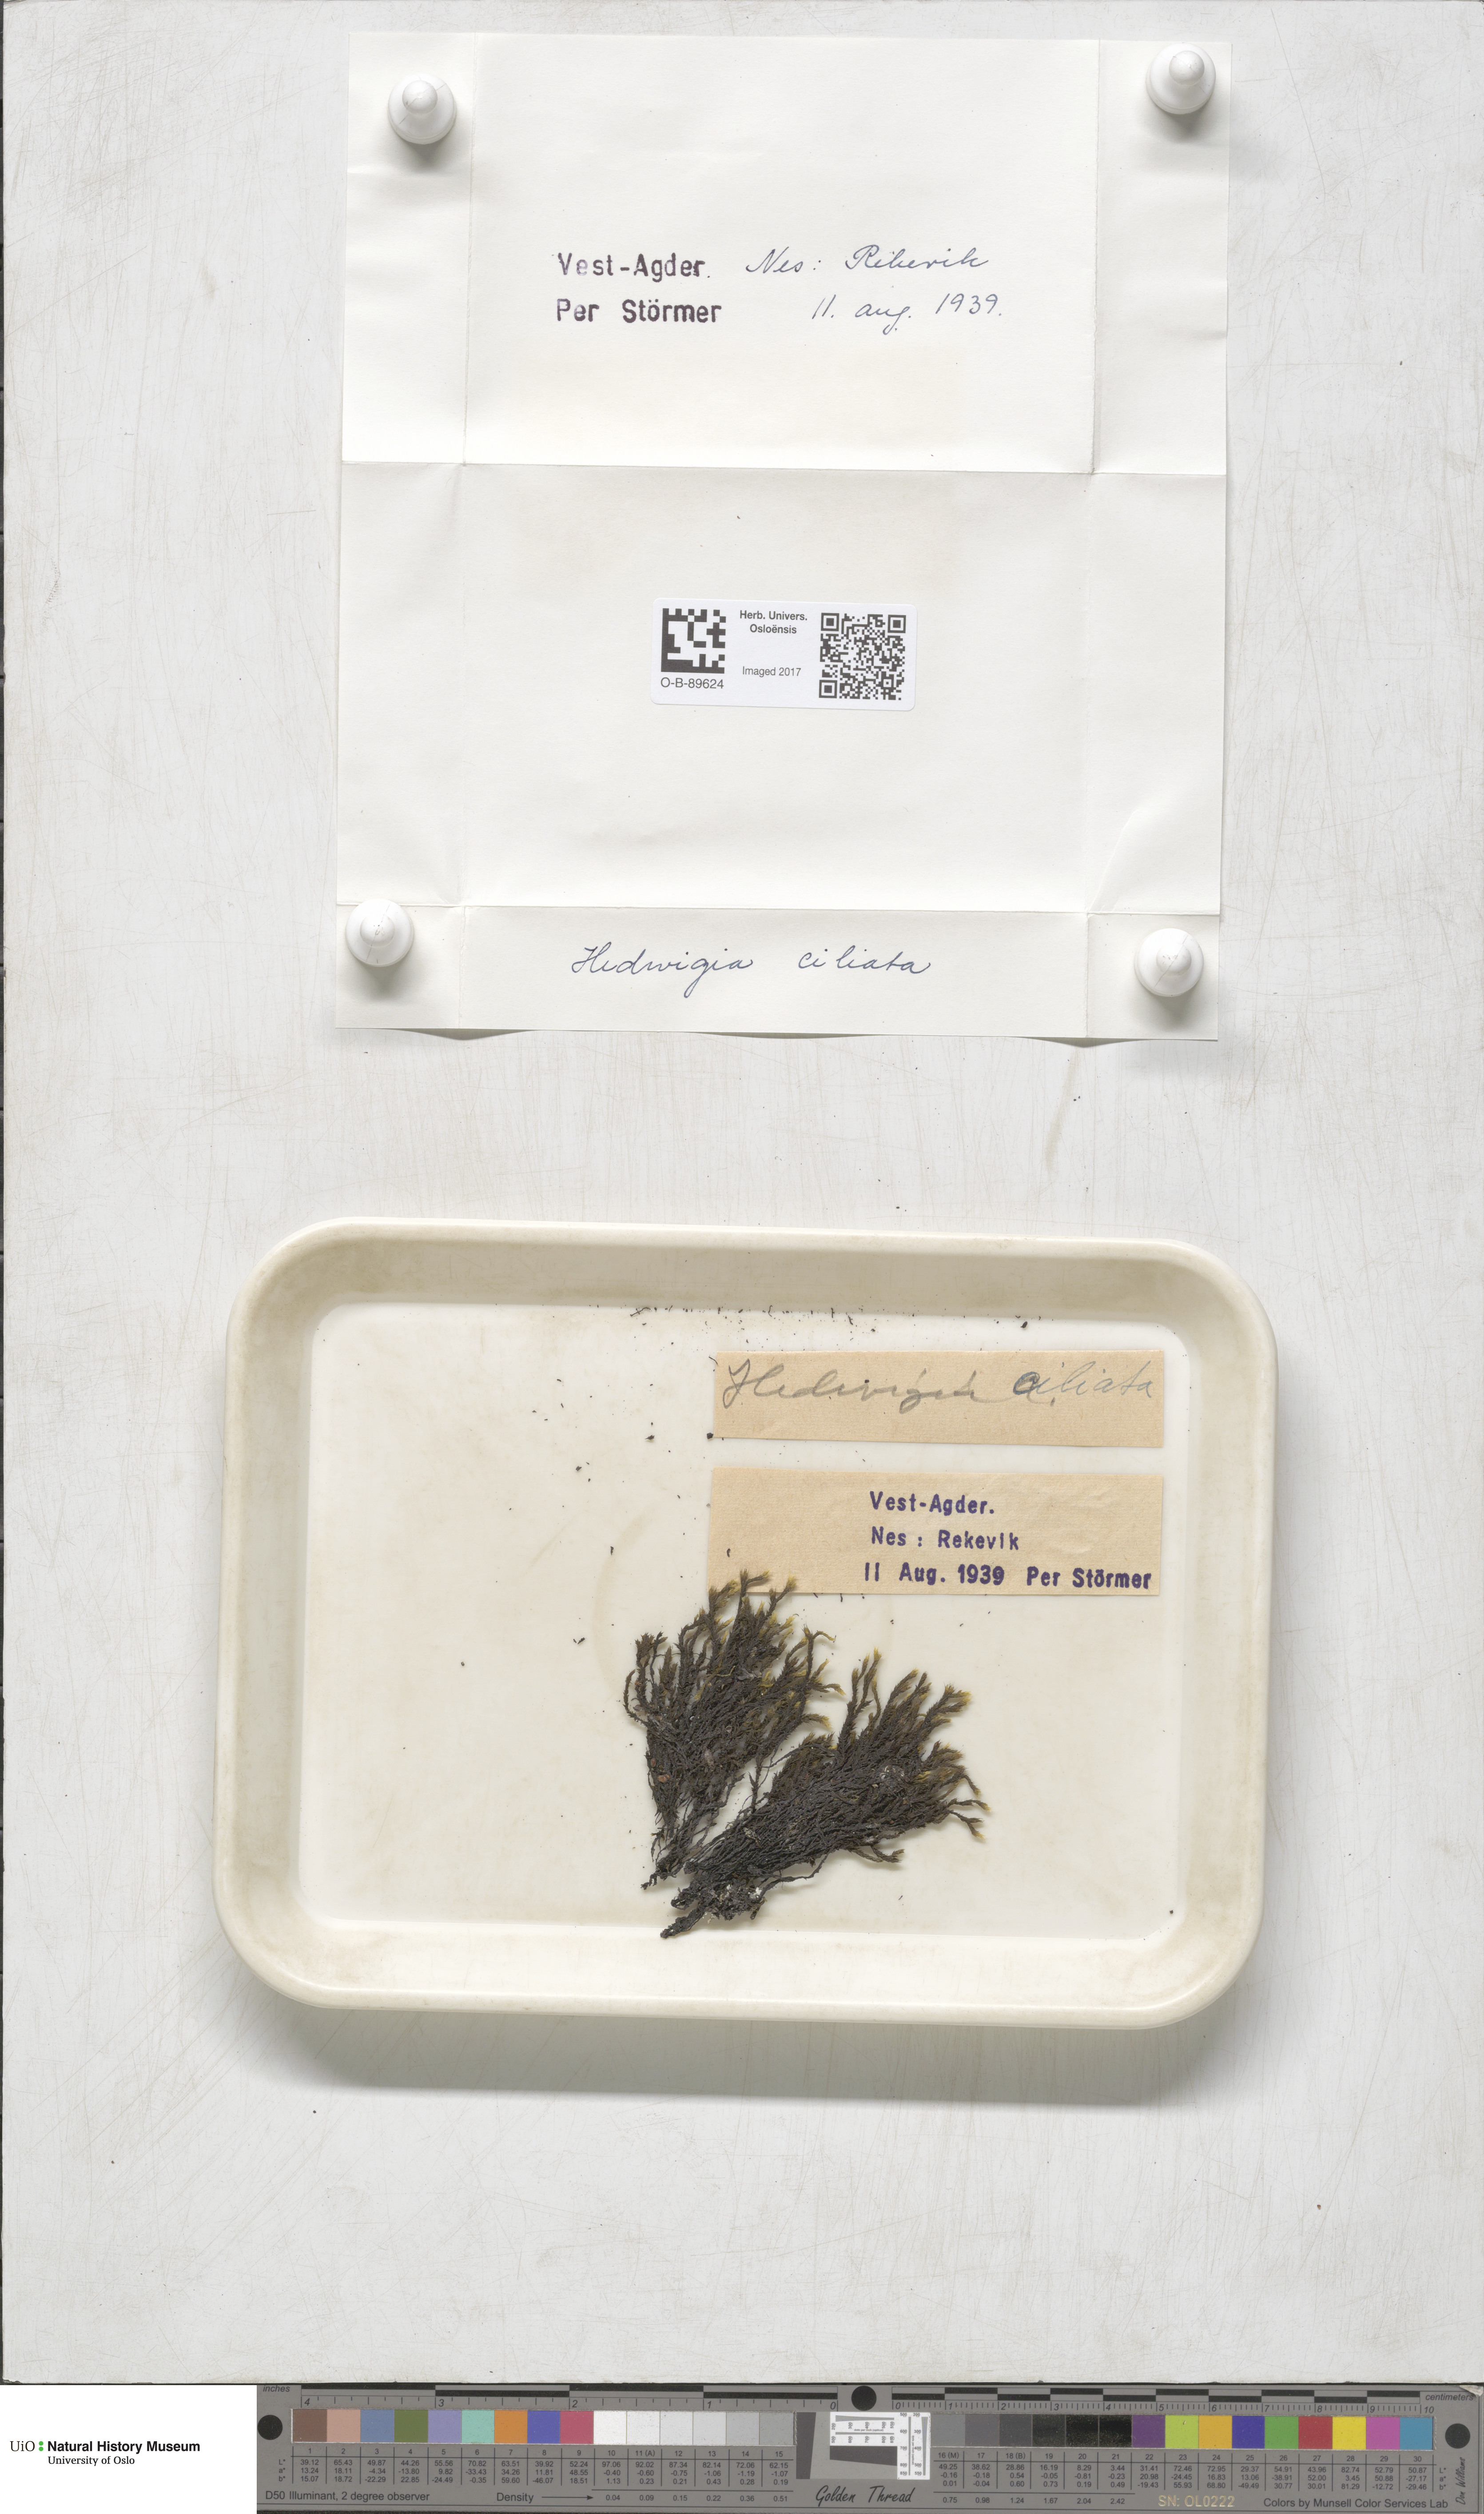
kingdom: Plantae
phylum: Bryophyta
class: Bryopsida
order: Hedwigiales
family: Hedwigiaceae
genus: Hedwigia
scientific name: Hedwigia ciliata
